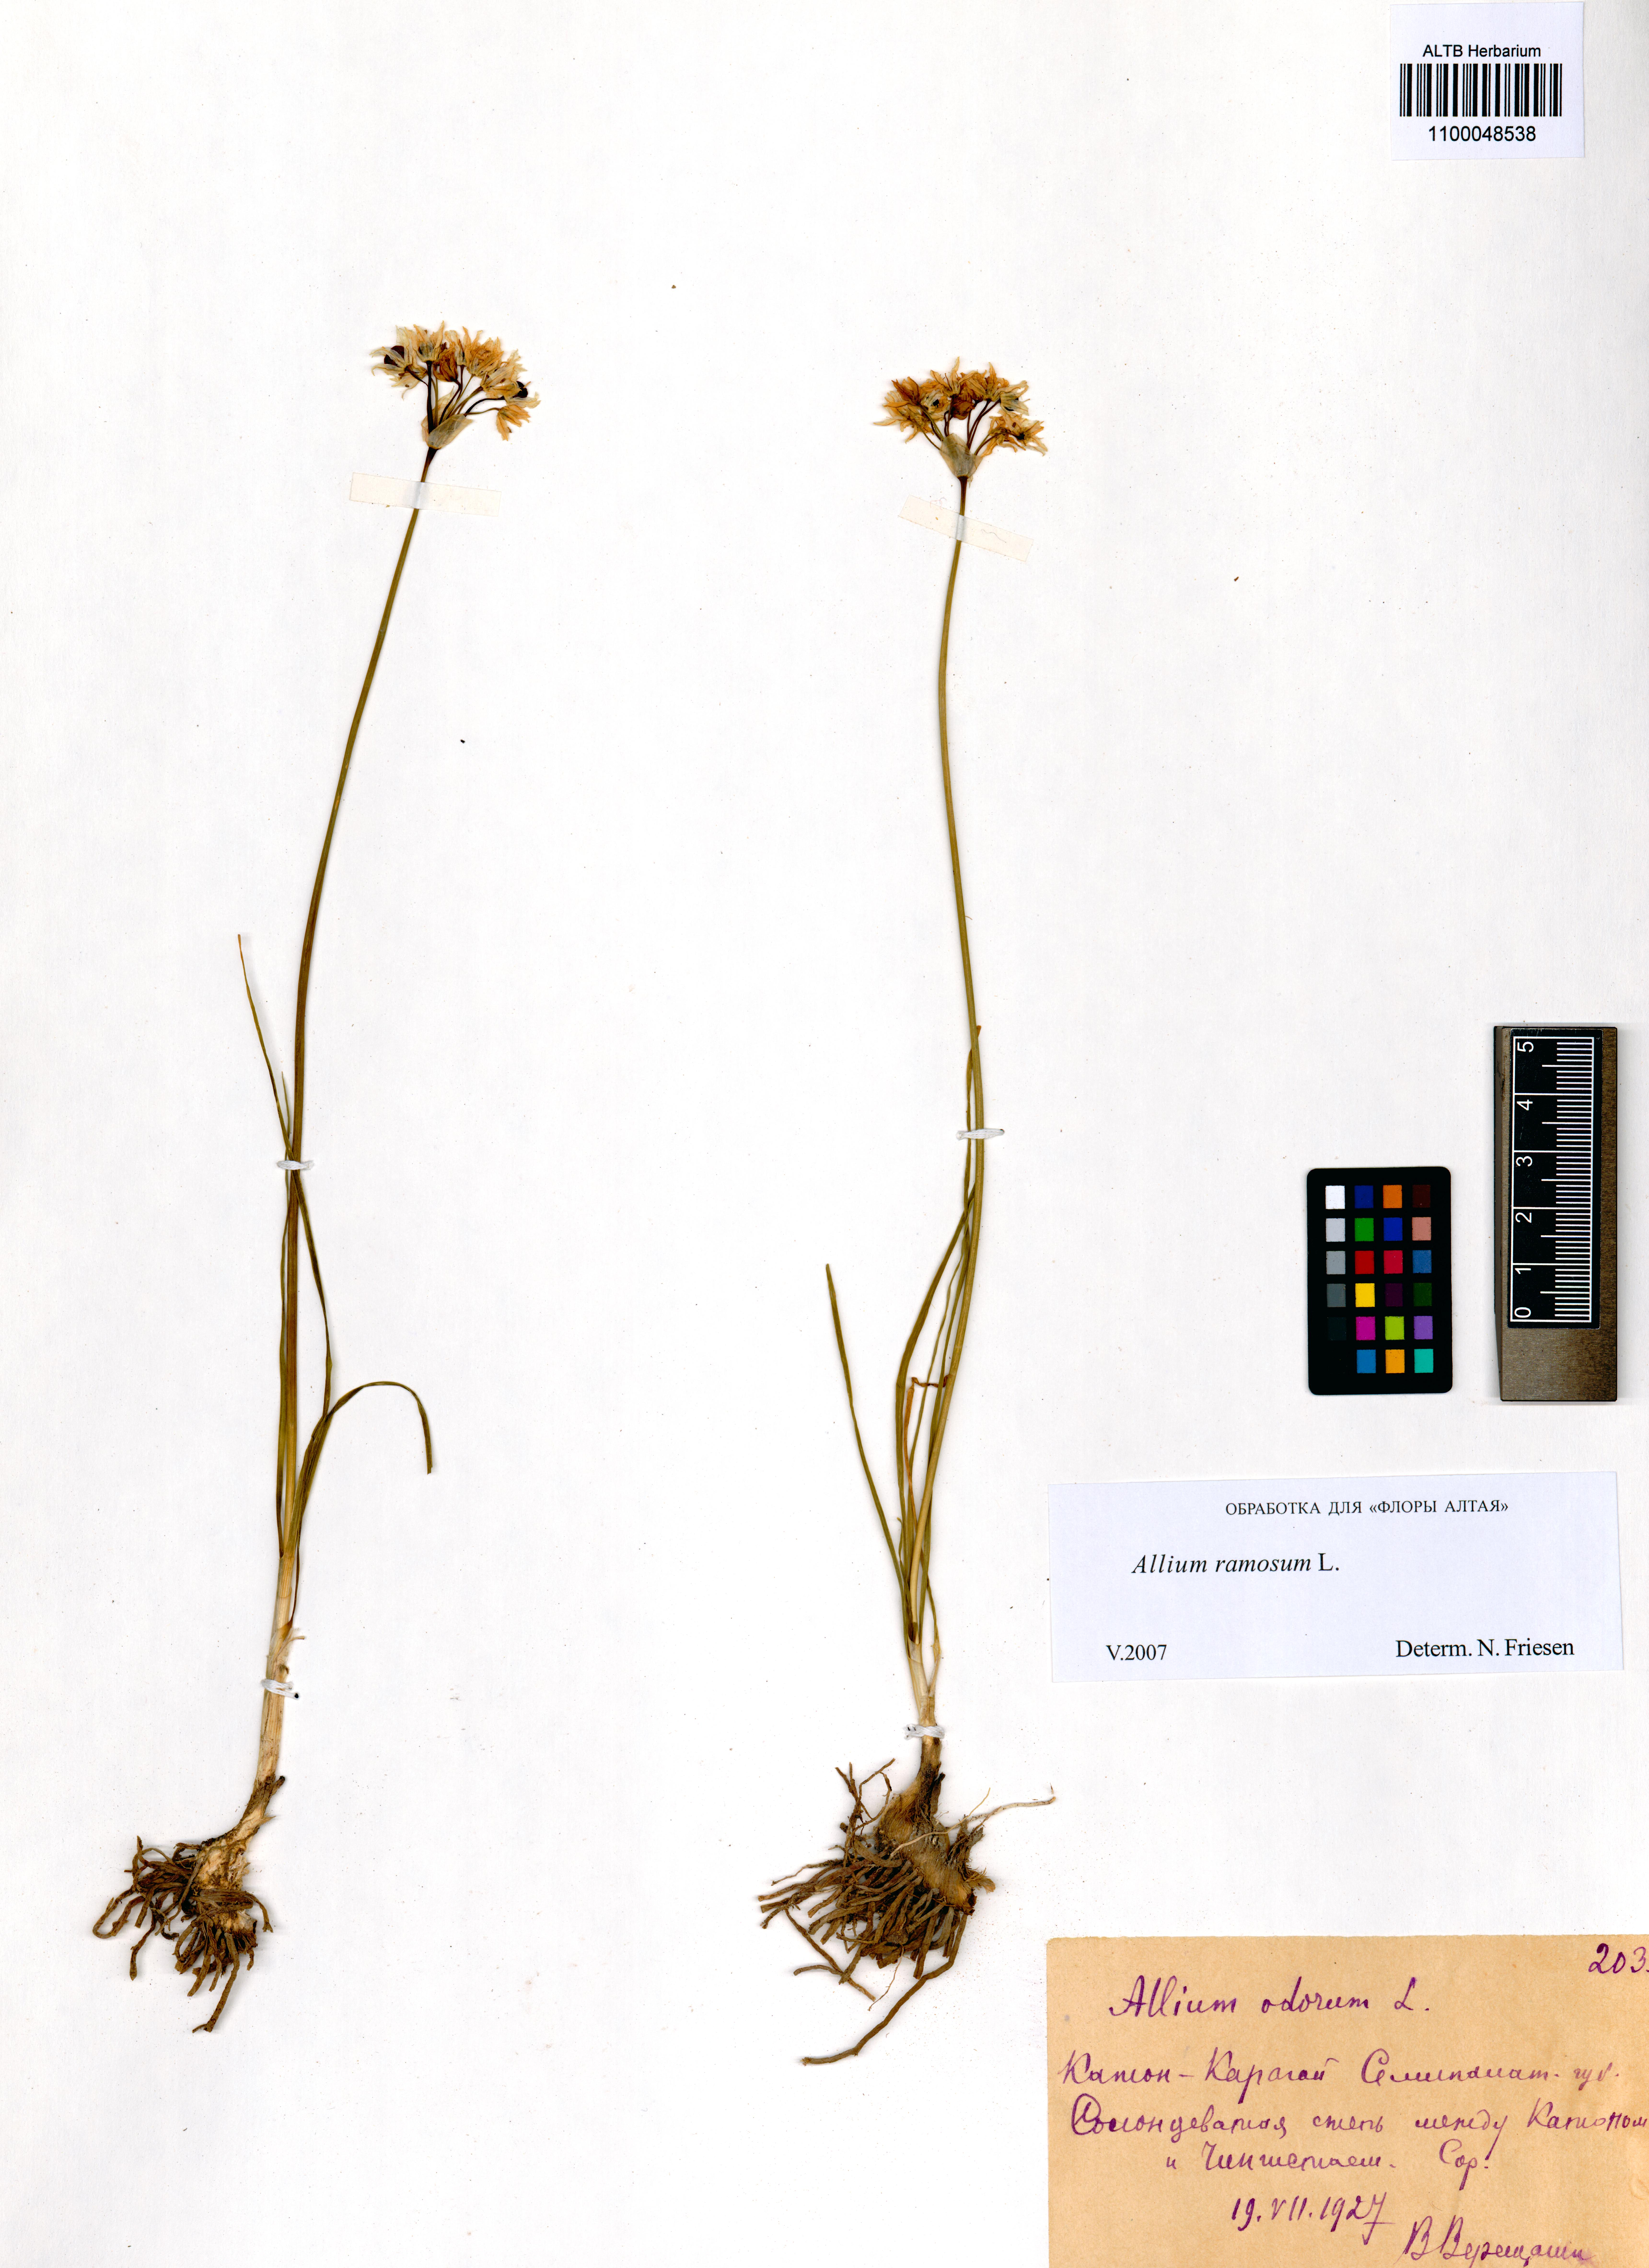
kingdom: Plantae
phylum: Tracheophyta
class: Liliopsida
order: Asparagales
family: Amaryllidaceae
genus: Allium
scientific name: Allium ramosum
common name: Fragrant garlic
